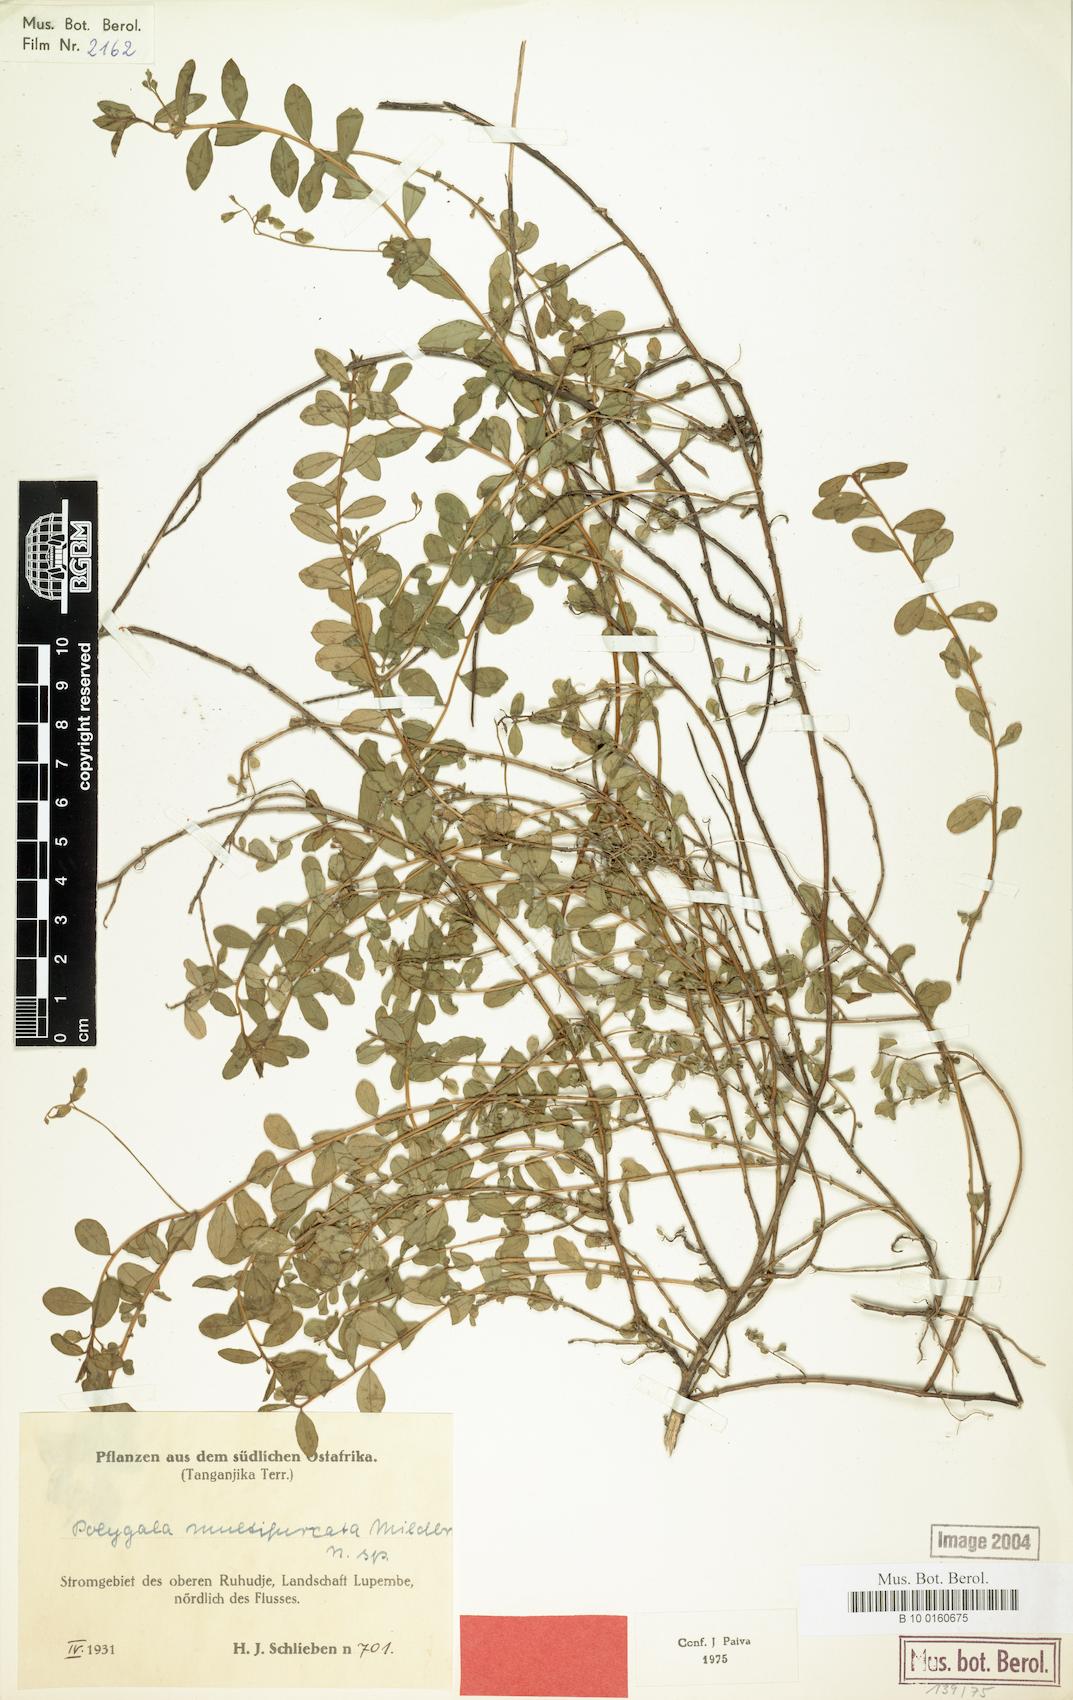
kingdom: Plantae
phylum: Tracheophyta
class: Magnoliopsida
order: Fabales
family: Polygalaceae
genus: Polygala
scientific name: Polygala multifurcata
